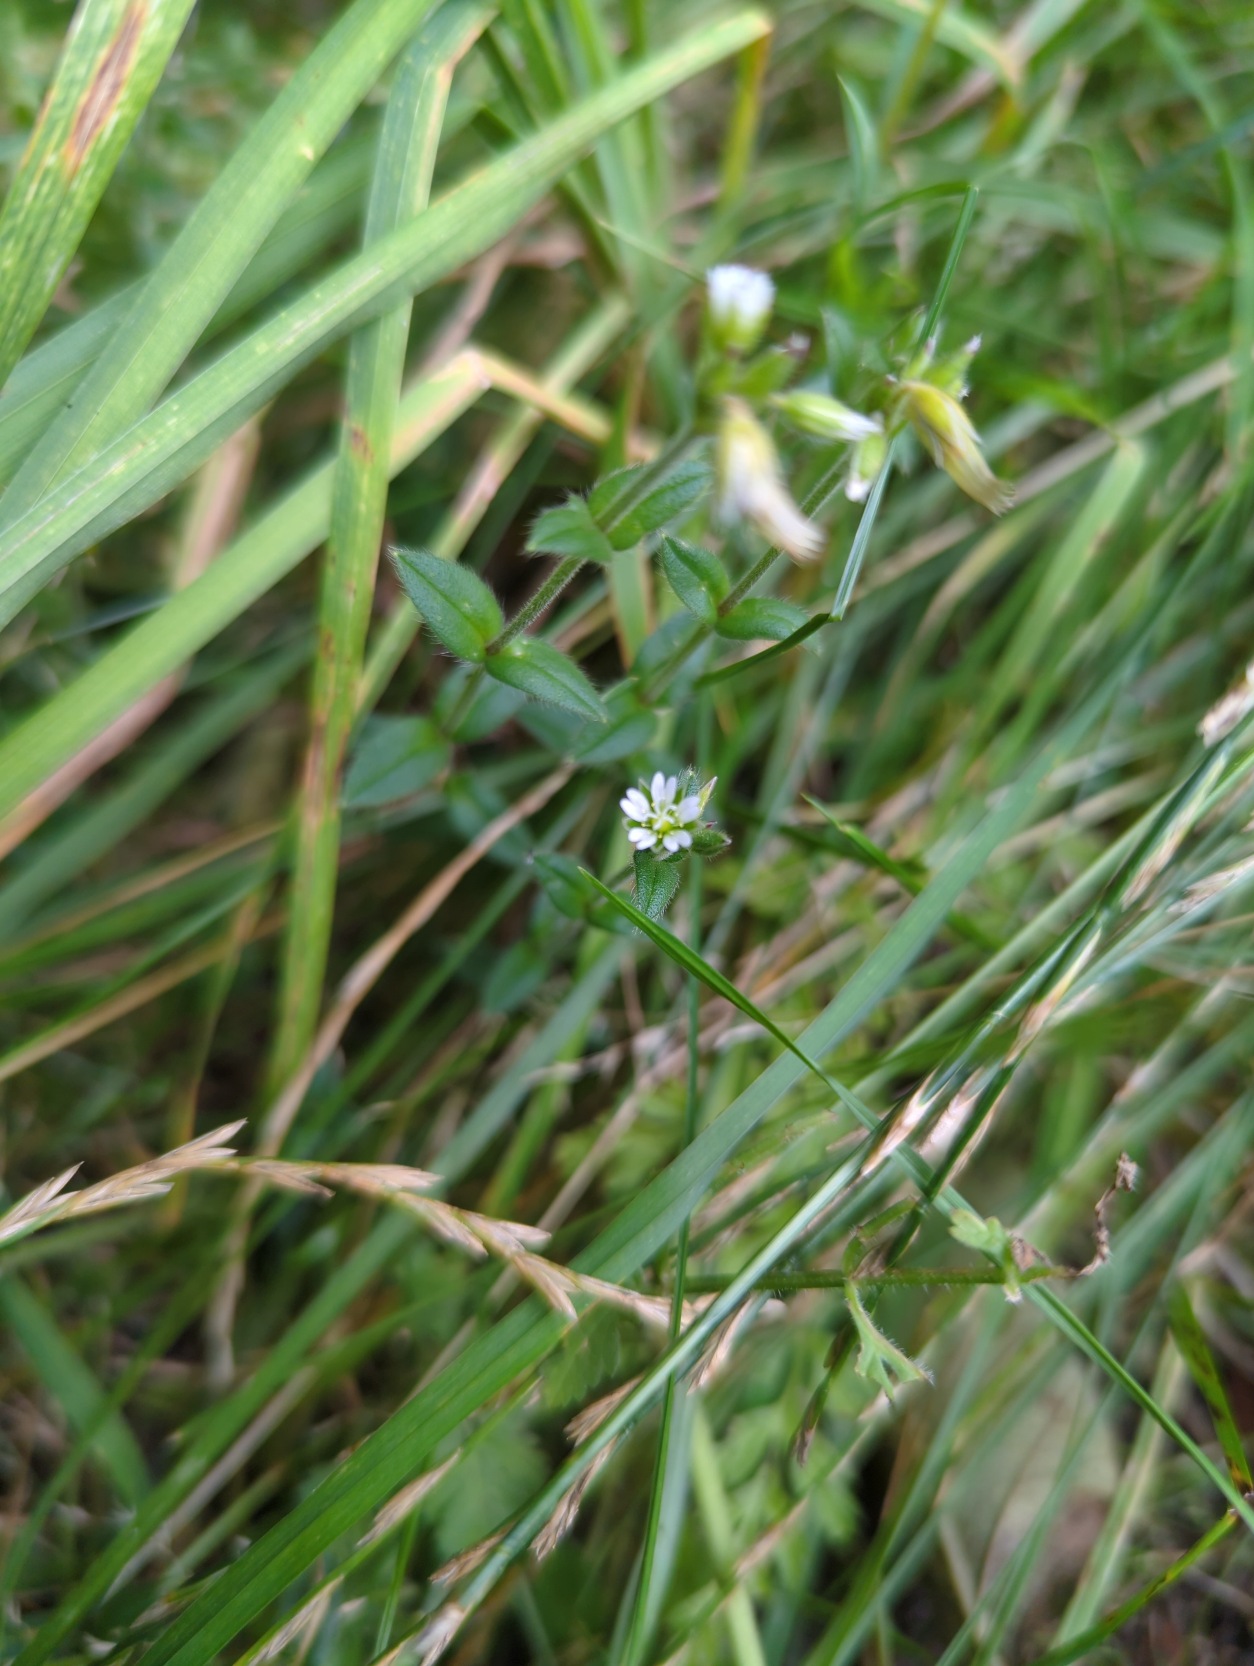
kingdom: Plantae
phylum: Tracheophyta
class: Magnoliopsida
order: Caryophyllales
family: Caryophyllaceae
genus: Cerastium
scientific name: Cerastium fontanum
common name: Almindelig hønsetarm
